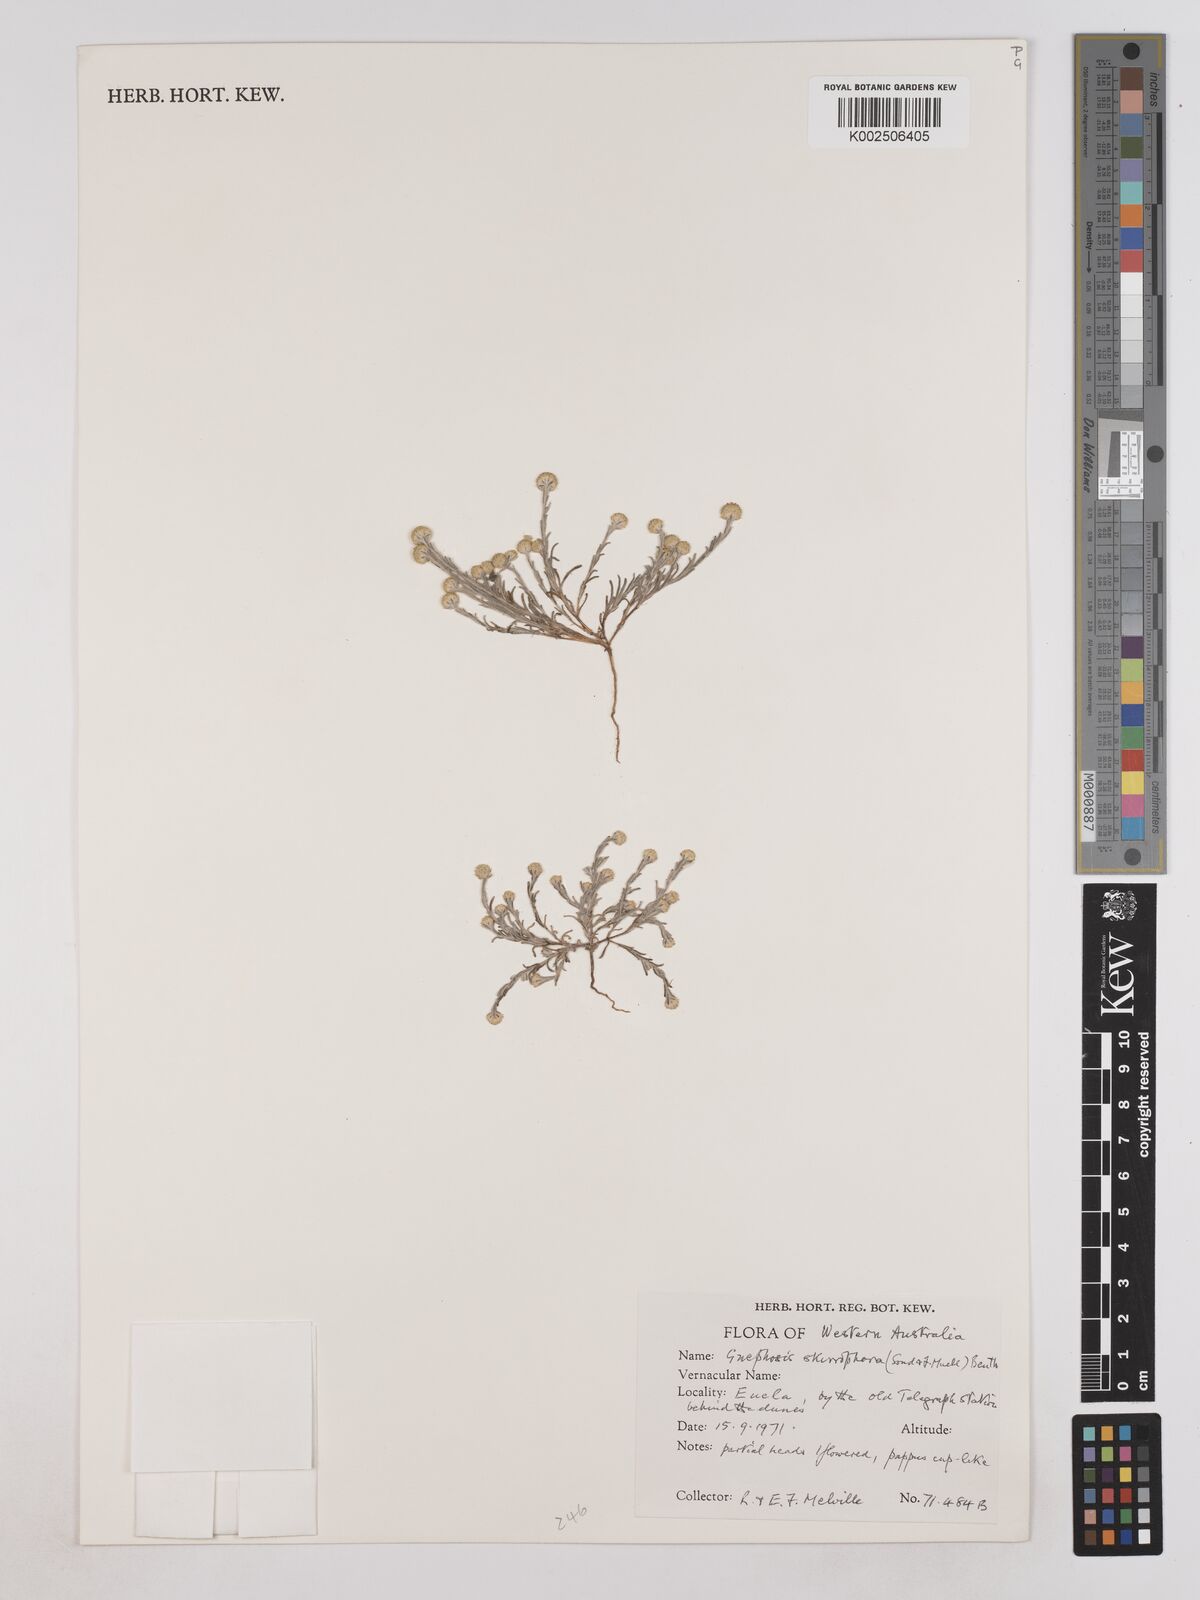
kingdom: Plantae
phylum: Tracheophyta
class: Magnoliopsida
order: Asterales
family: Asteraceae
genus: Trichanthodium
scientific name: Trichanthodium skirrophorum
